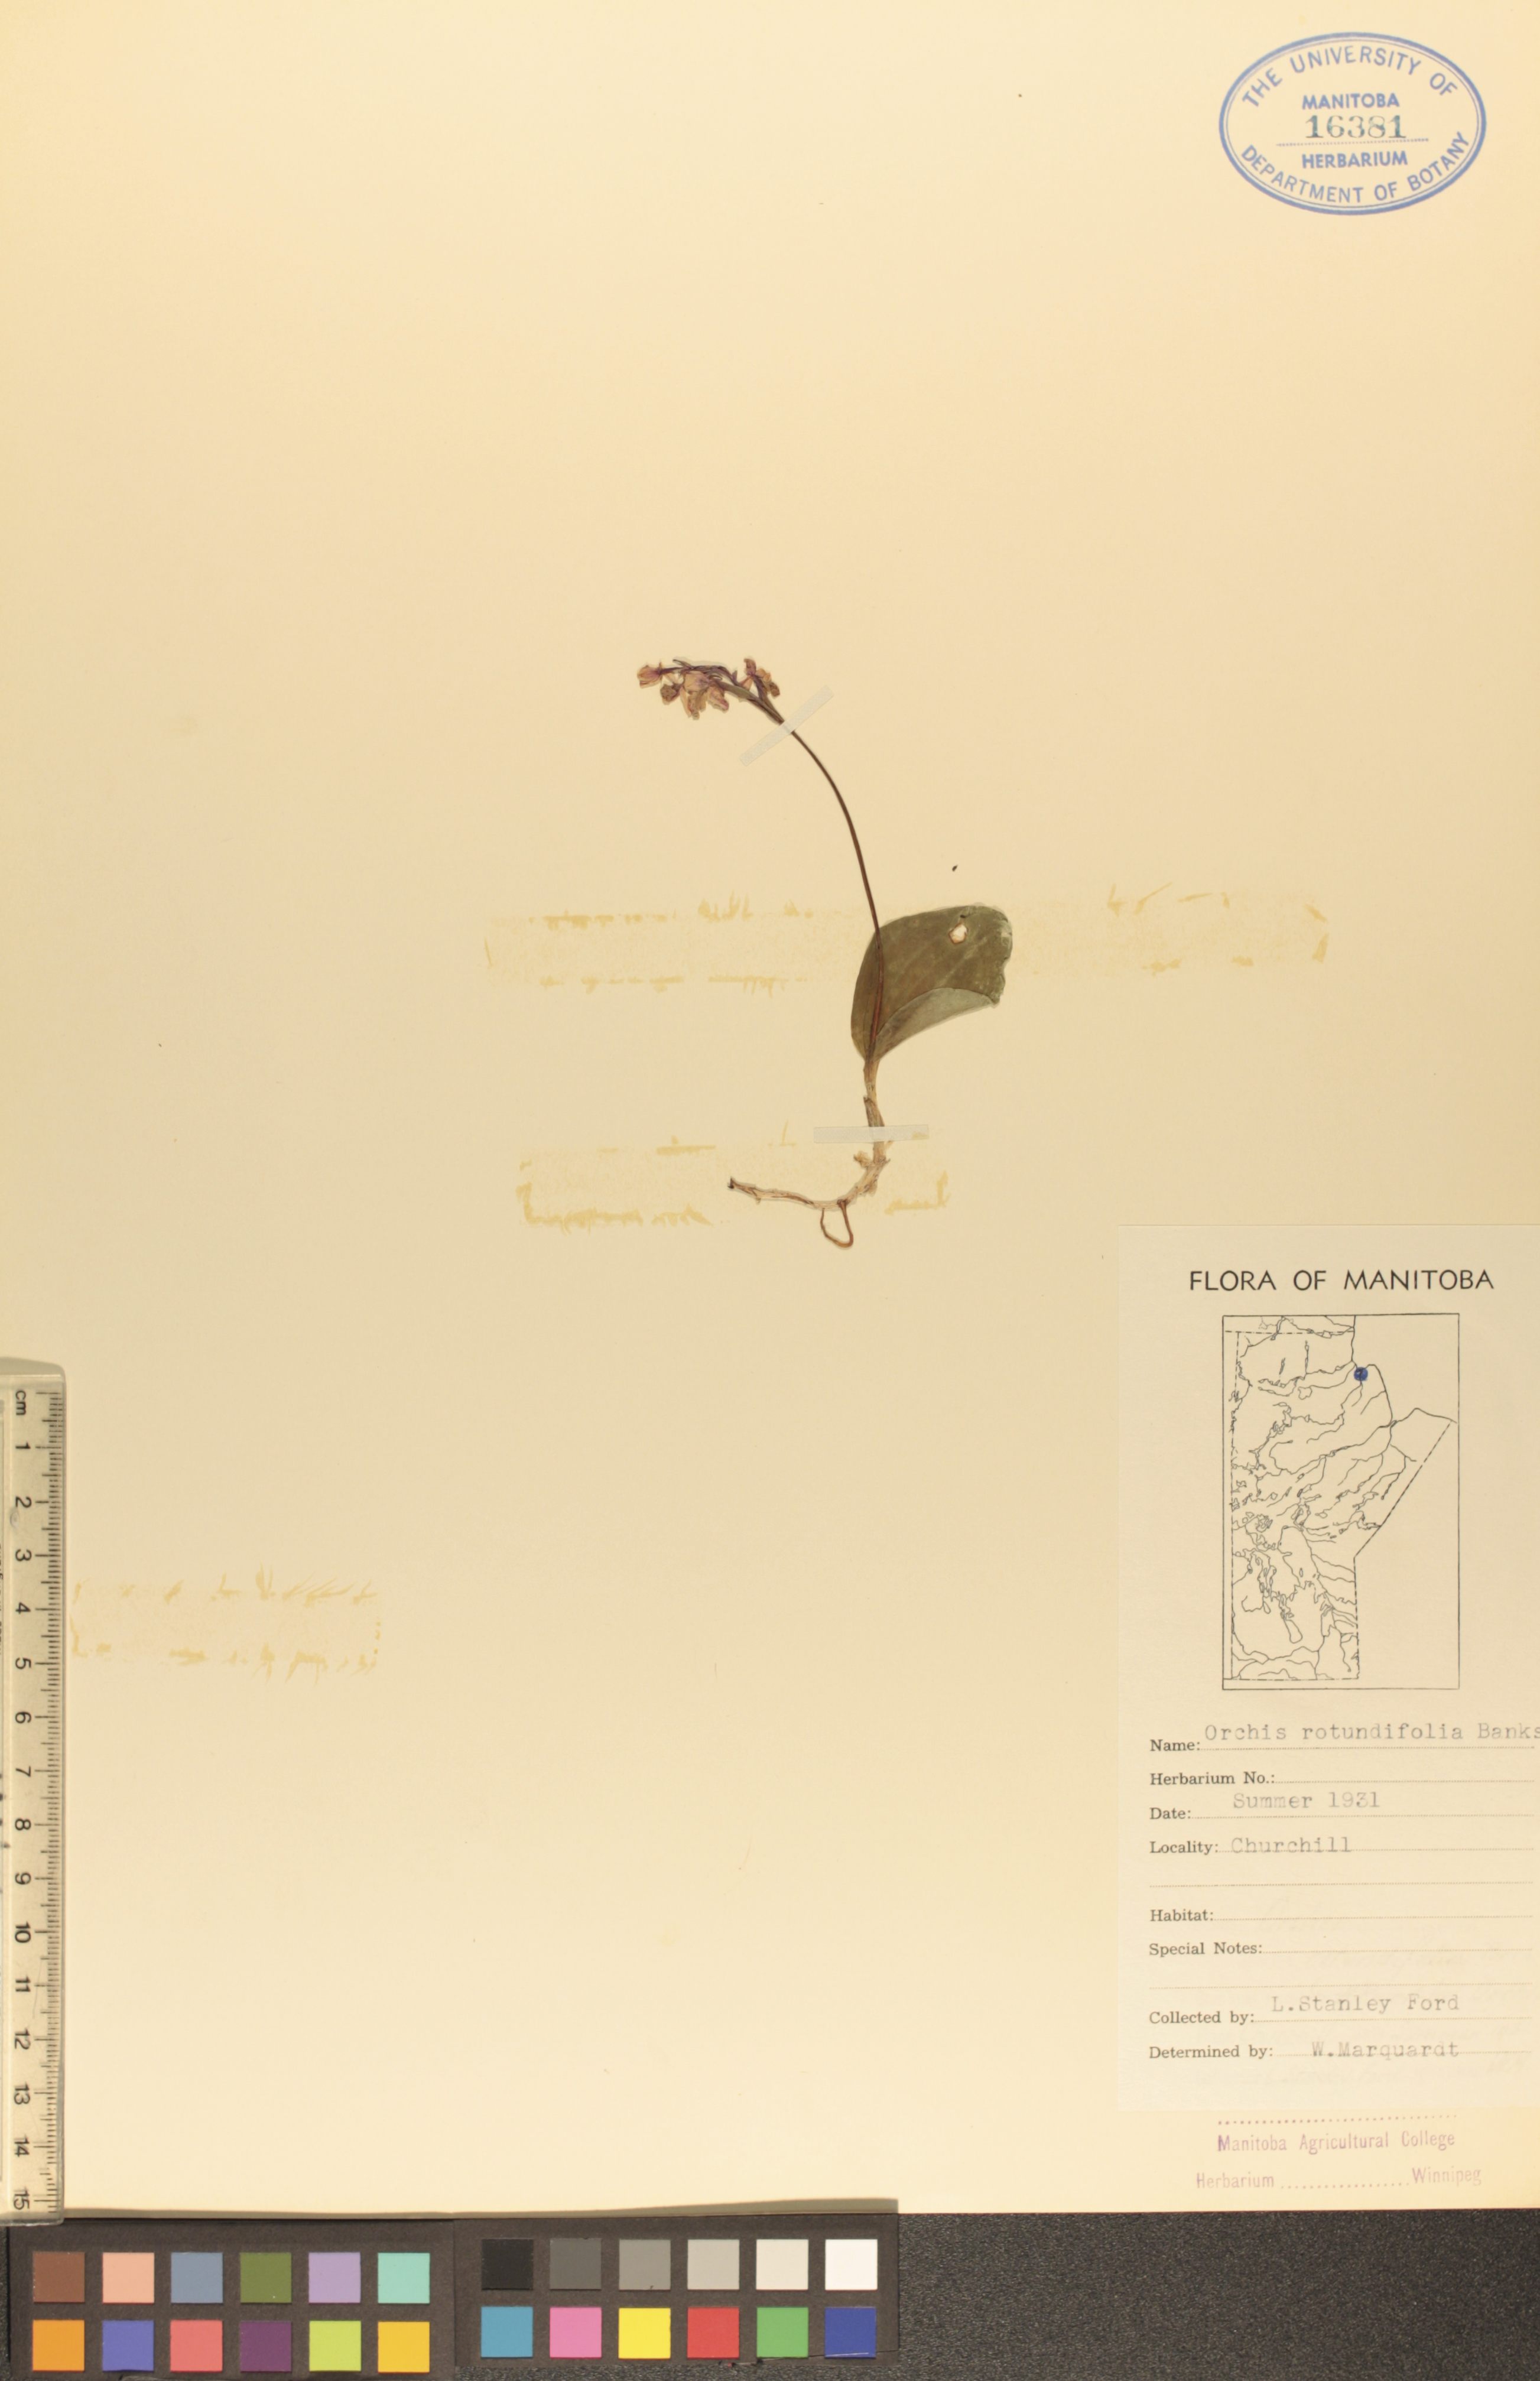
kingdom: Plantae
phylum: Tracheophyta
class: Liliopsida
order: Asparagales
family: Orchidaceae
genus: Galearis
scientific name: Galearis rotundifolia
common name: One-leaved orchis
